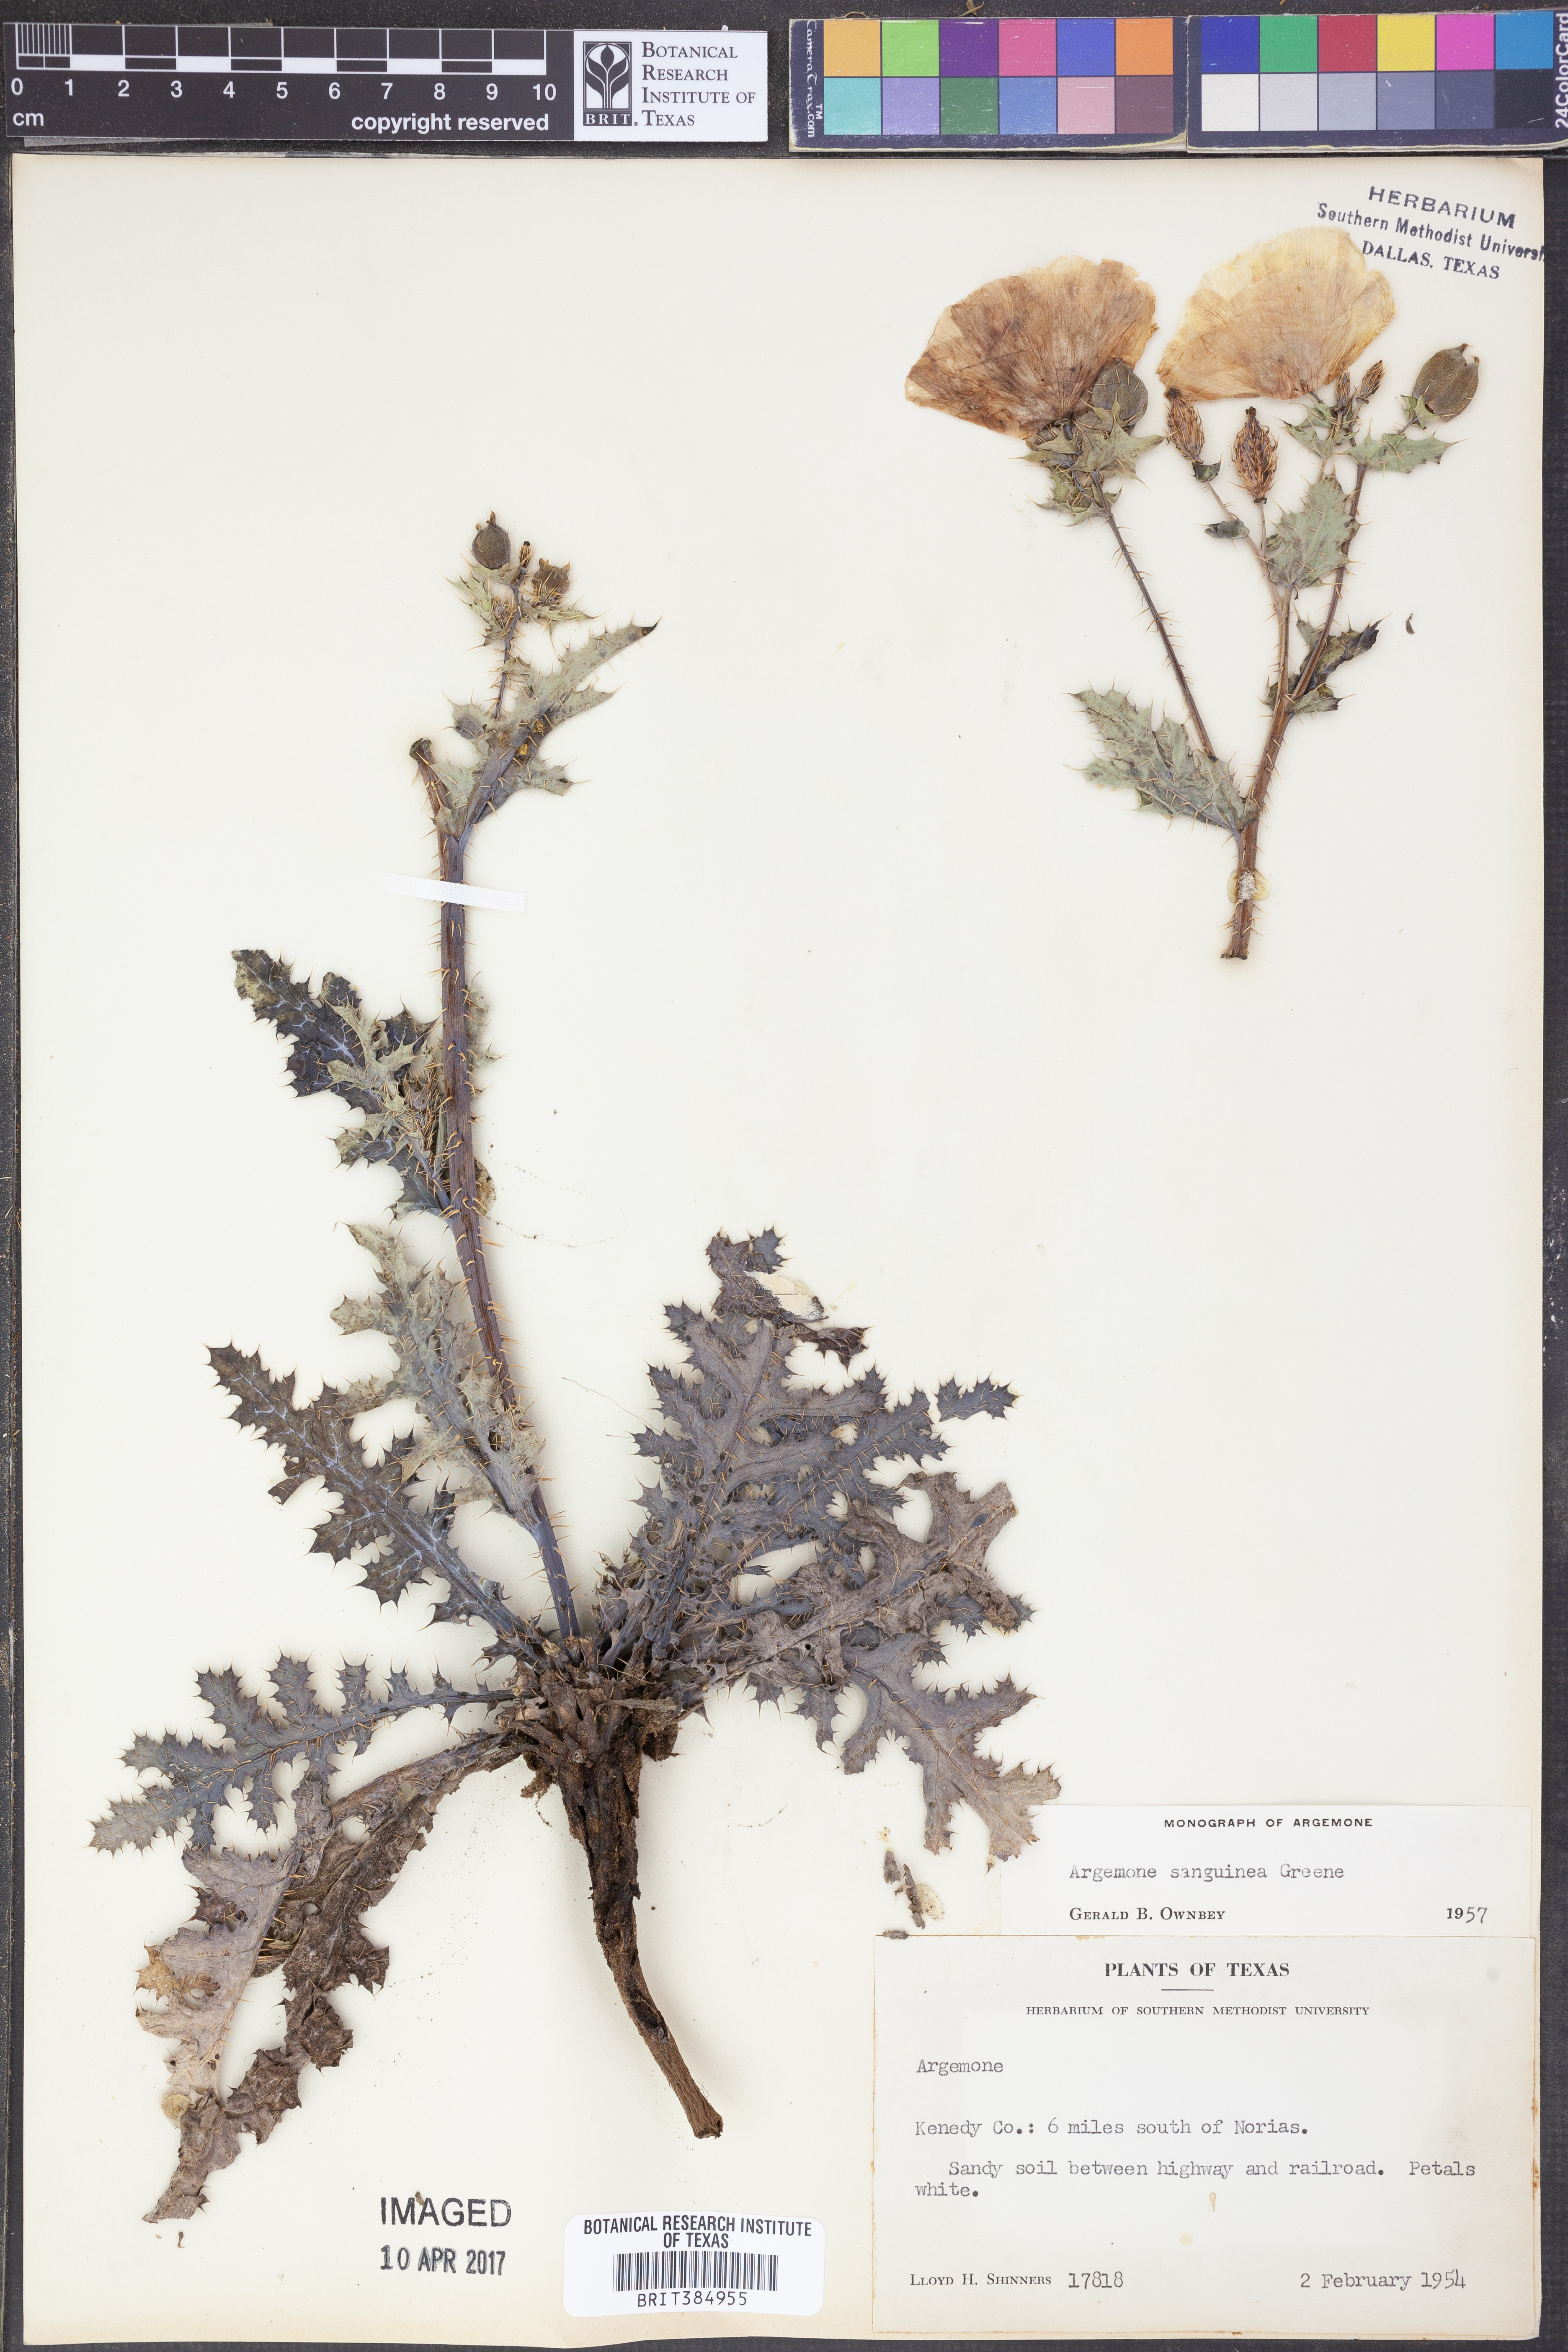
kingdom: Plantae
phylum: Tracheophyta
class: Magnoliopsida
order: Ranunculales
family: Papaveraceae
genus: Argemone
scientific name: Argemone sanguinea
